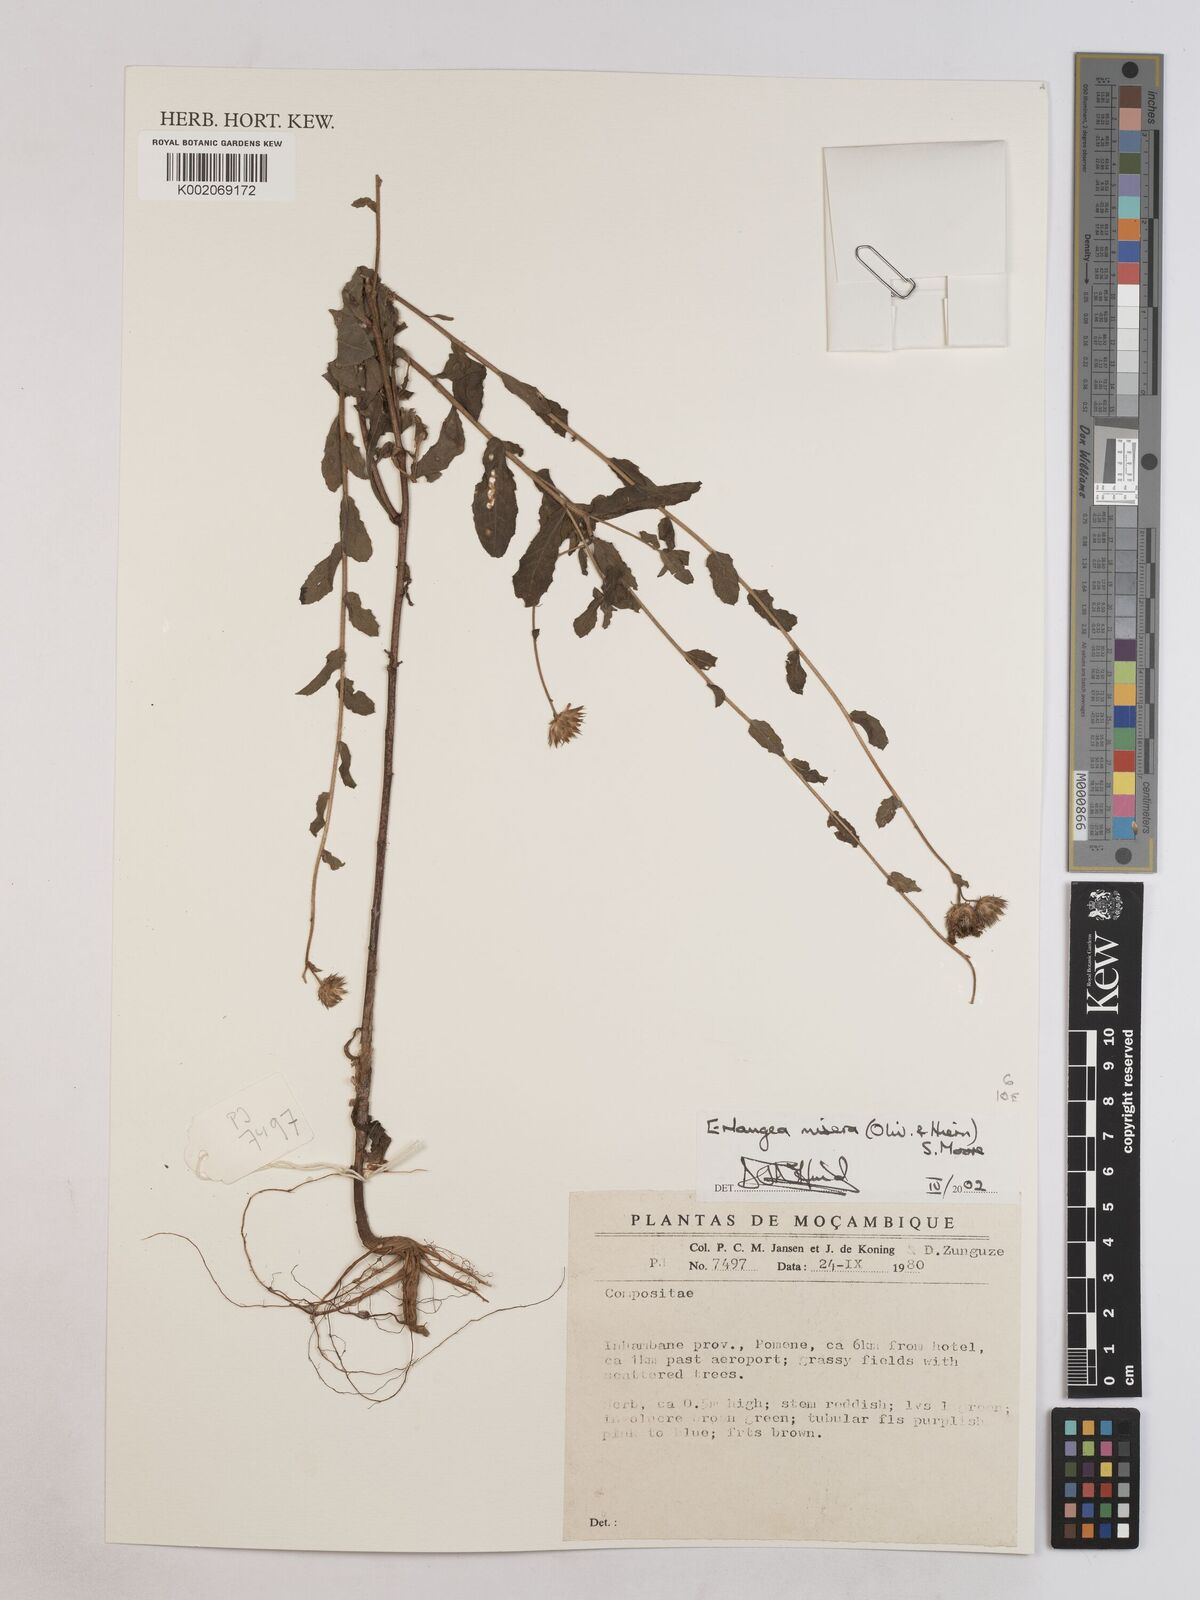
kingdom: Plantae
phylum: Tracheophyta
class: Magnoliopsida
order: Asterales
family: Asteraceae
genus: Erlangea
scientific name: Erlangea misera
